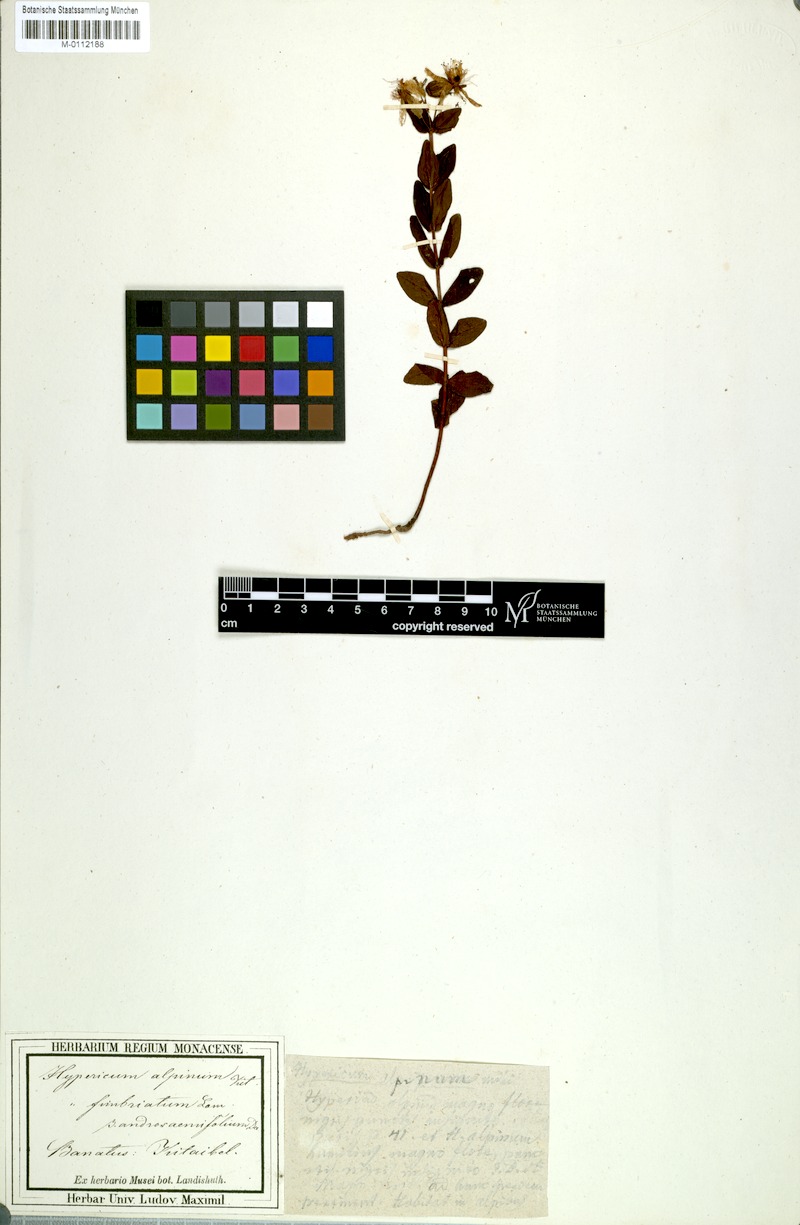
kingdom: Plantae
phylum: Tracheophyta
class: Magnoliopsida
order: Malpighiales
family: Hypericaceae
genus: Hypericum
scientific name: Hypericum richeri
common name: Alpine st john's-wort
